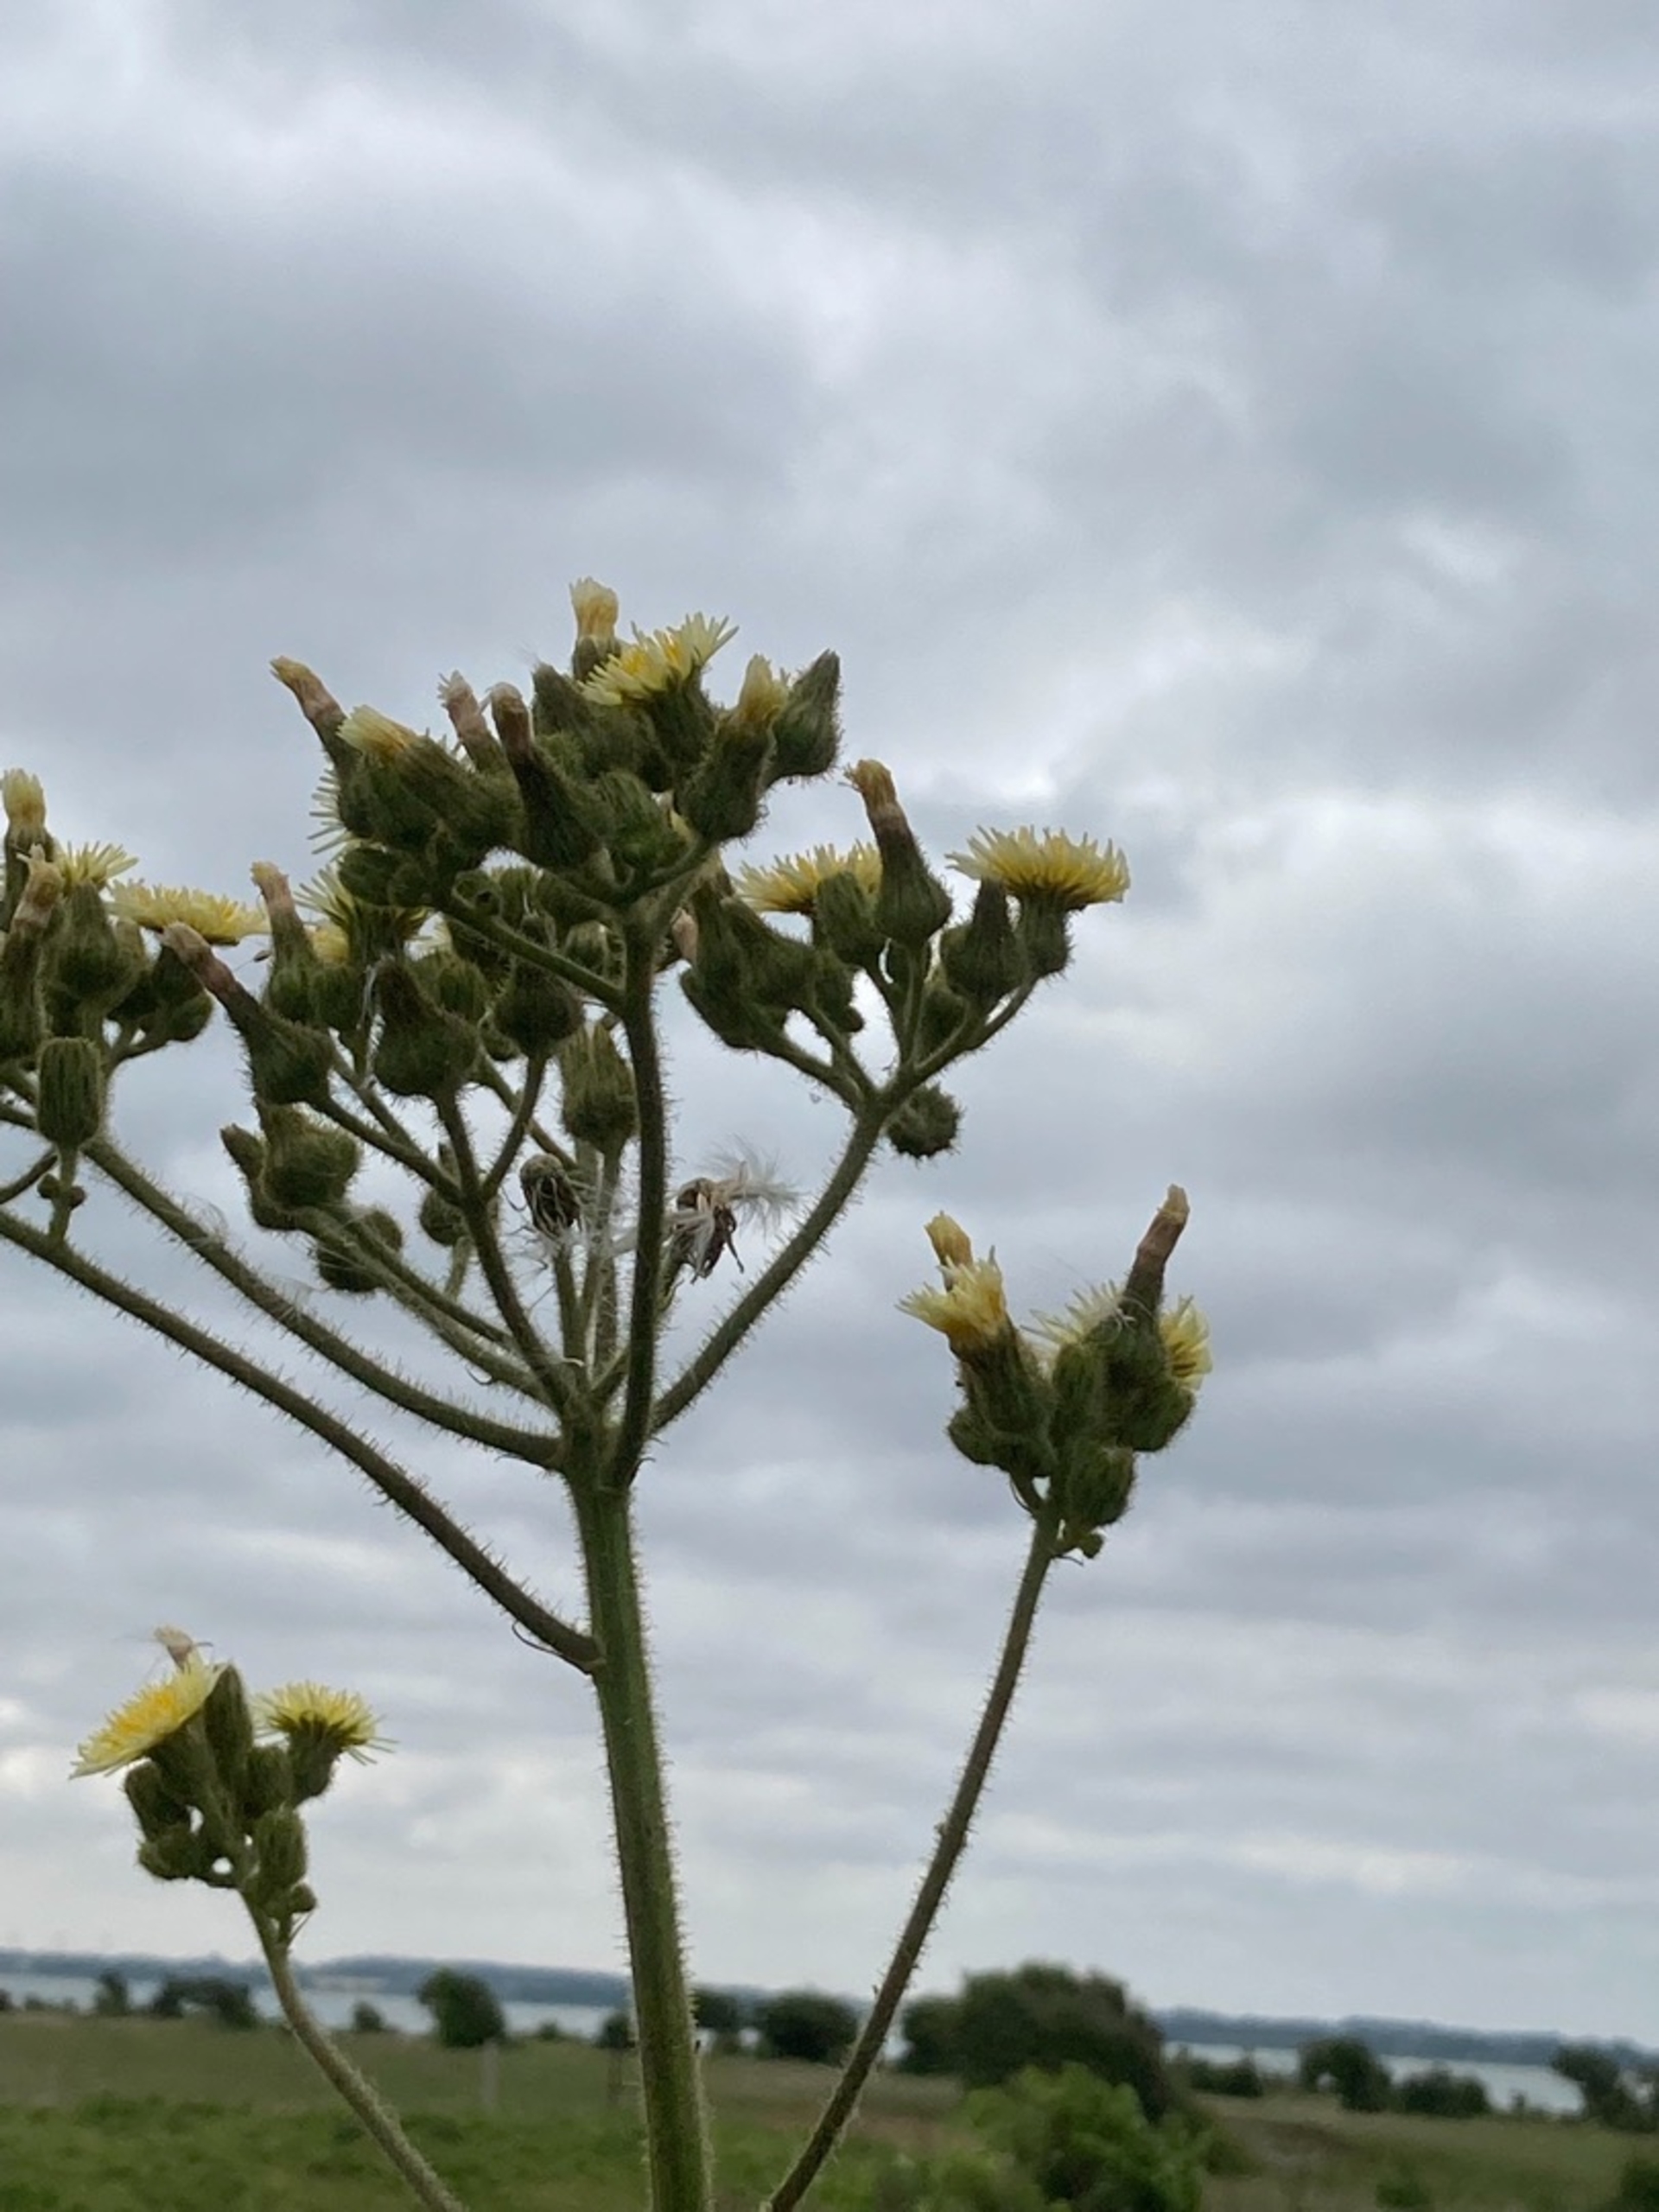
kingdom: Plantae
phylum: Tracheophyta
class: Magnoliopsida
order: Asterales
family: Asteraceae
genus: Sonchus
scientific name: Sonchus palustris
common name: Kær-svinemælk
